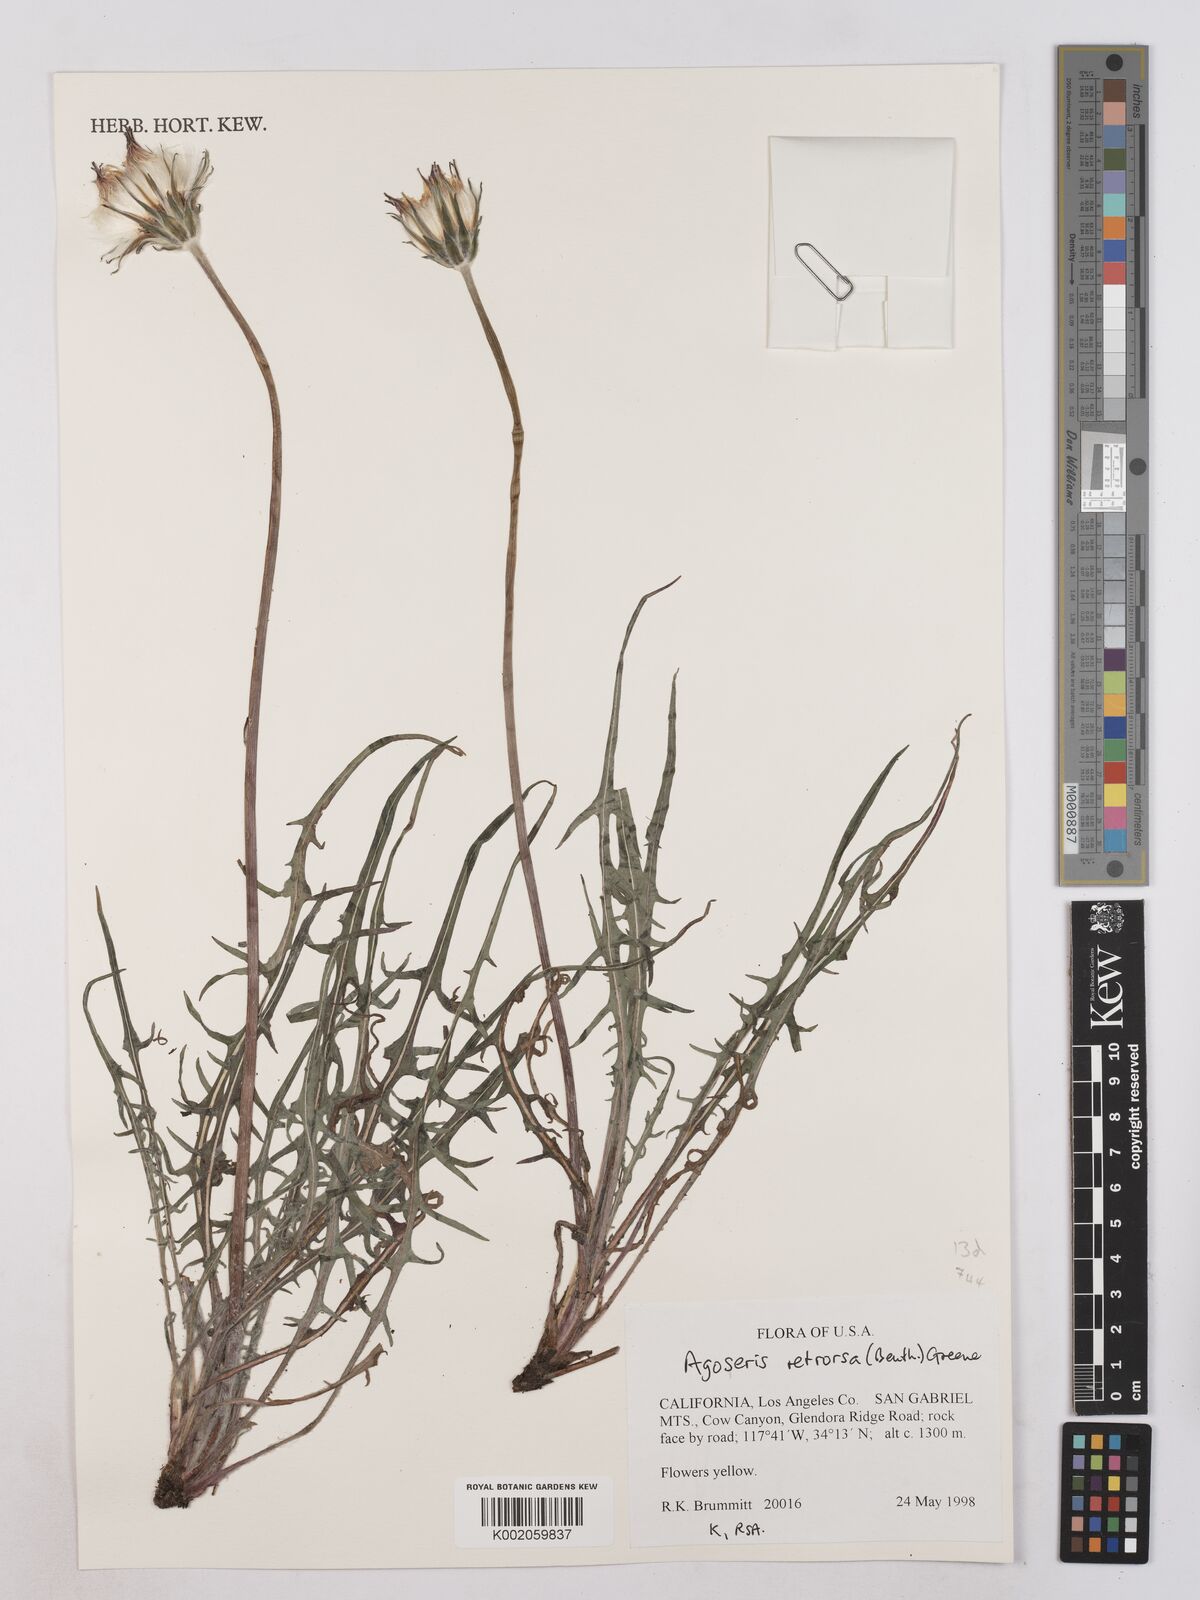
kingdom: Plantae
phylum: Tracheophyta
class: Magnoliopsida
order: Asterales
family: Asteraceae
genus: Agoseris
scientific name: Agoseris retrorsa
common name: Spearleaf agoseris
